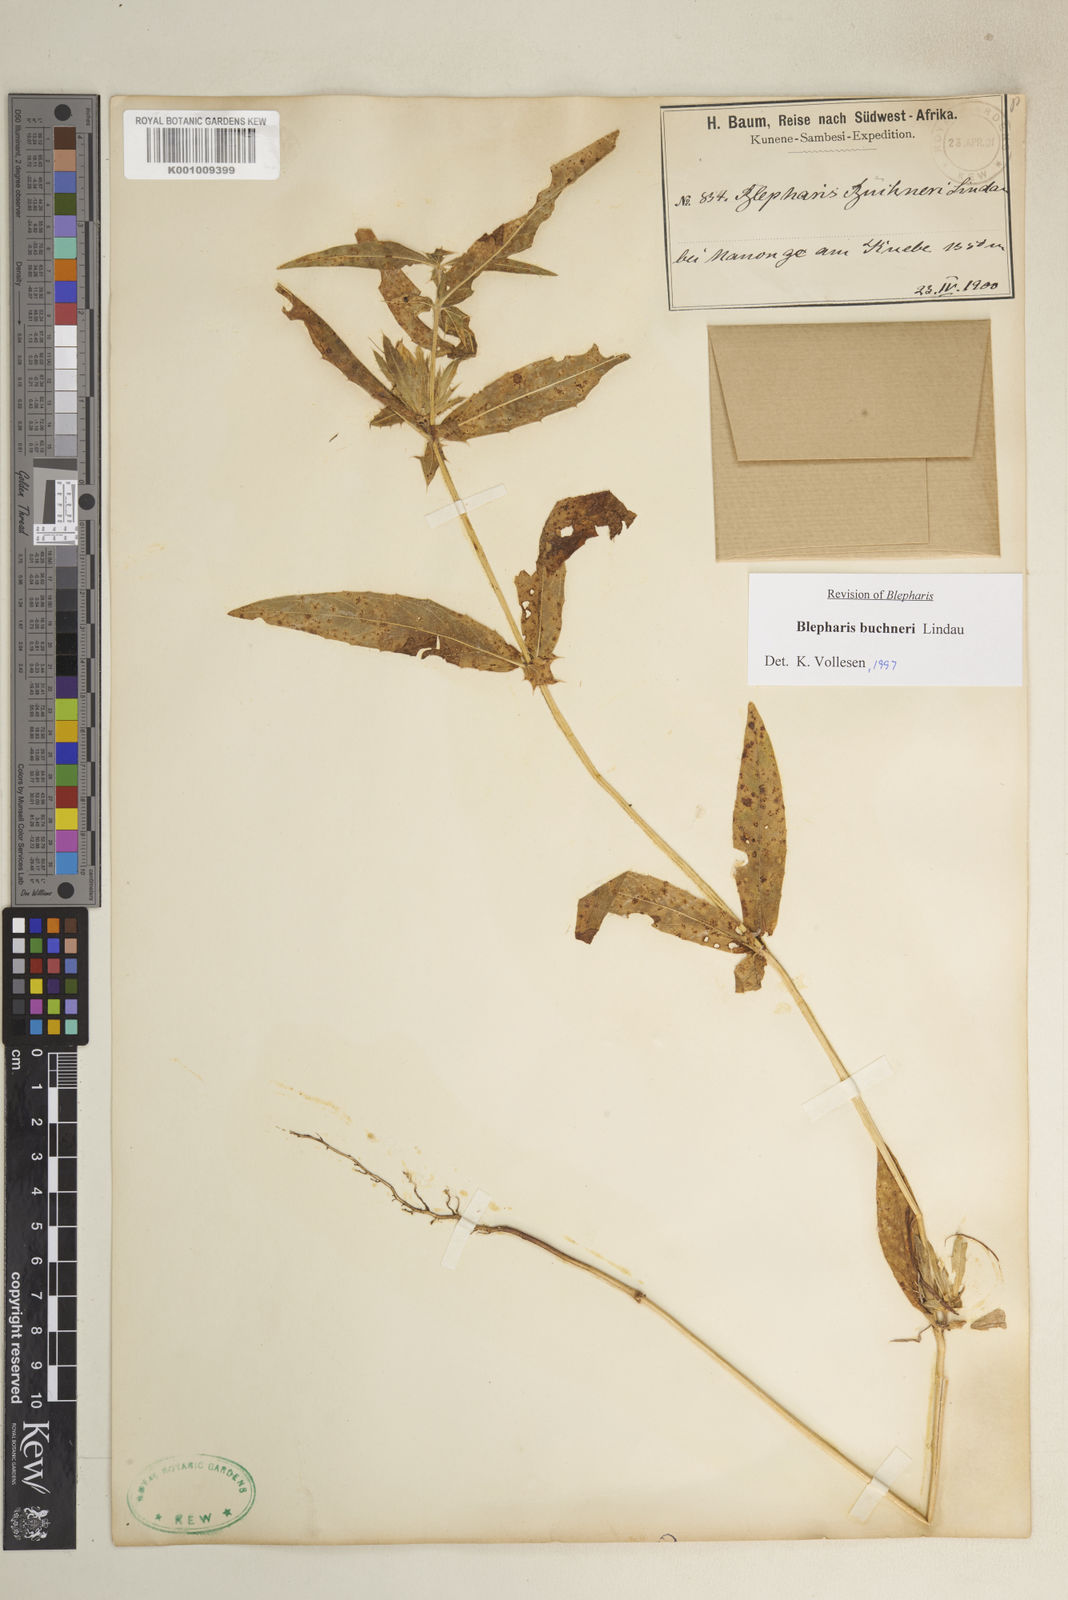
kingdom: Plantae
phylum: Tracheophyta
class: Magnoliopsida
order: Lamiales
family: Acanthaceae
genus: Blepharis
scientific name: Blepharis buchneri
